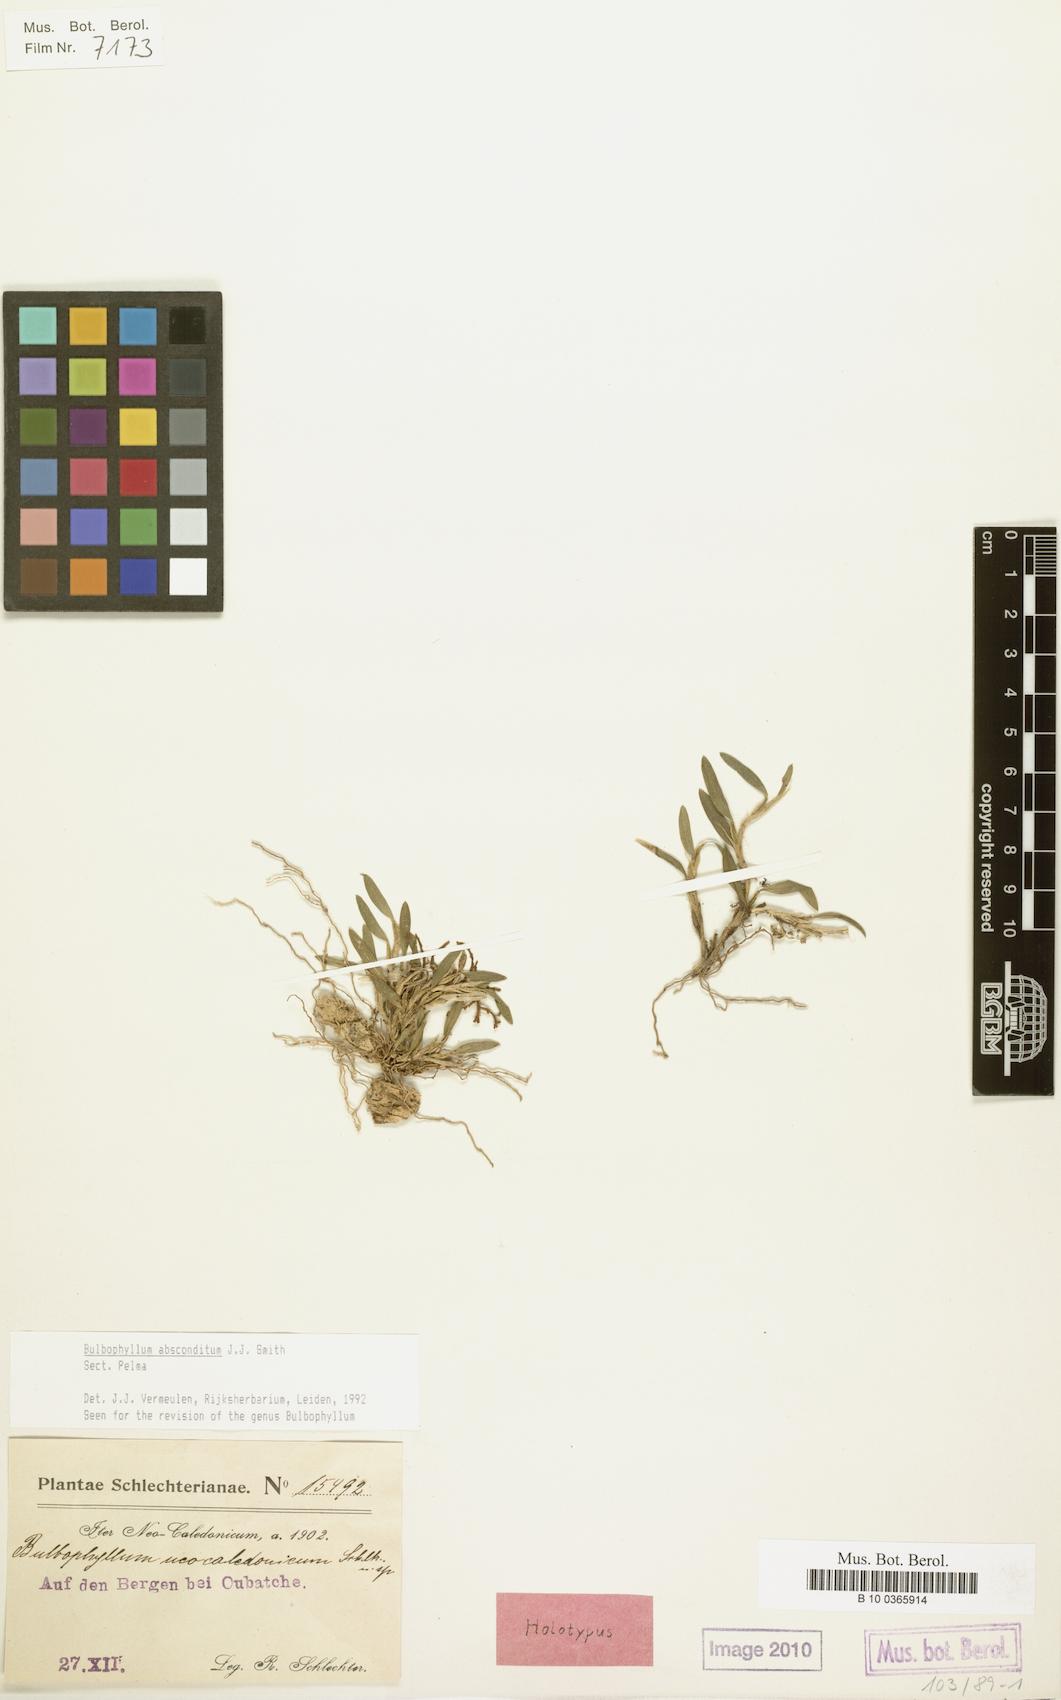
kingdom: Plantae
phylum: Tracheophyta
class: Liliopsida
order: Asparagales
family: Orchidaceae
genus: Bulbophyllum
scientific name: Bulbophyllum absconditum
